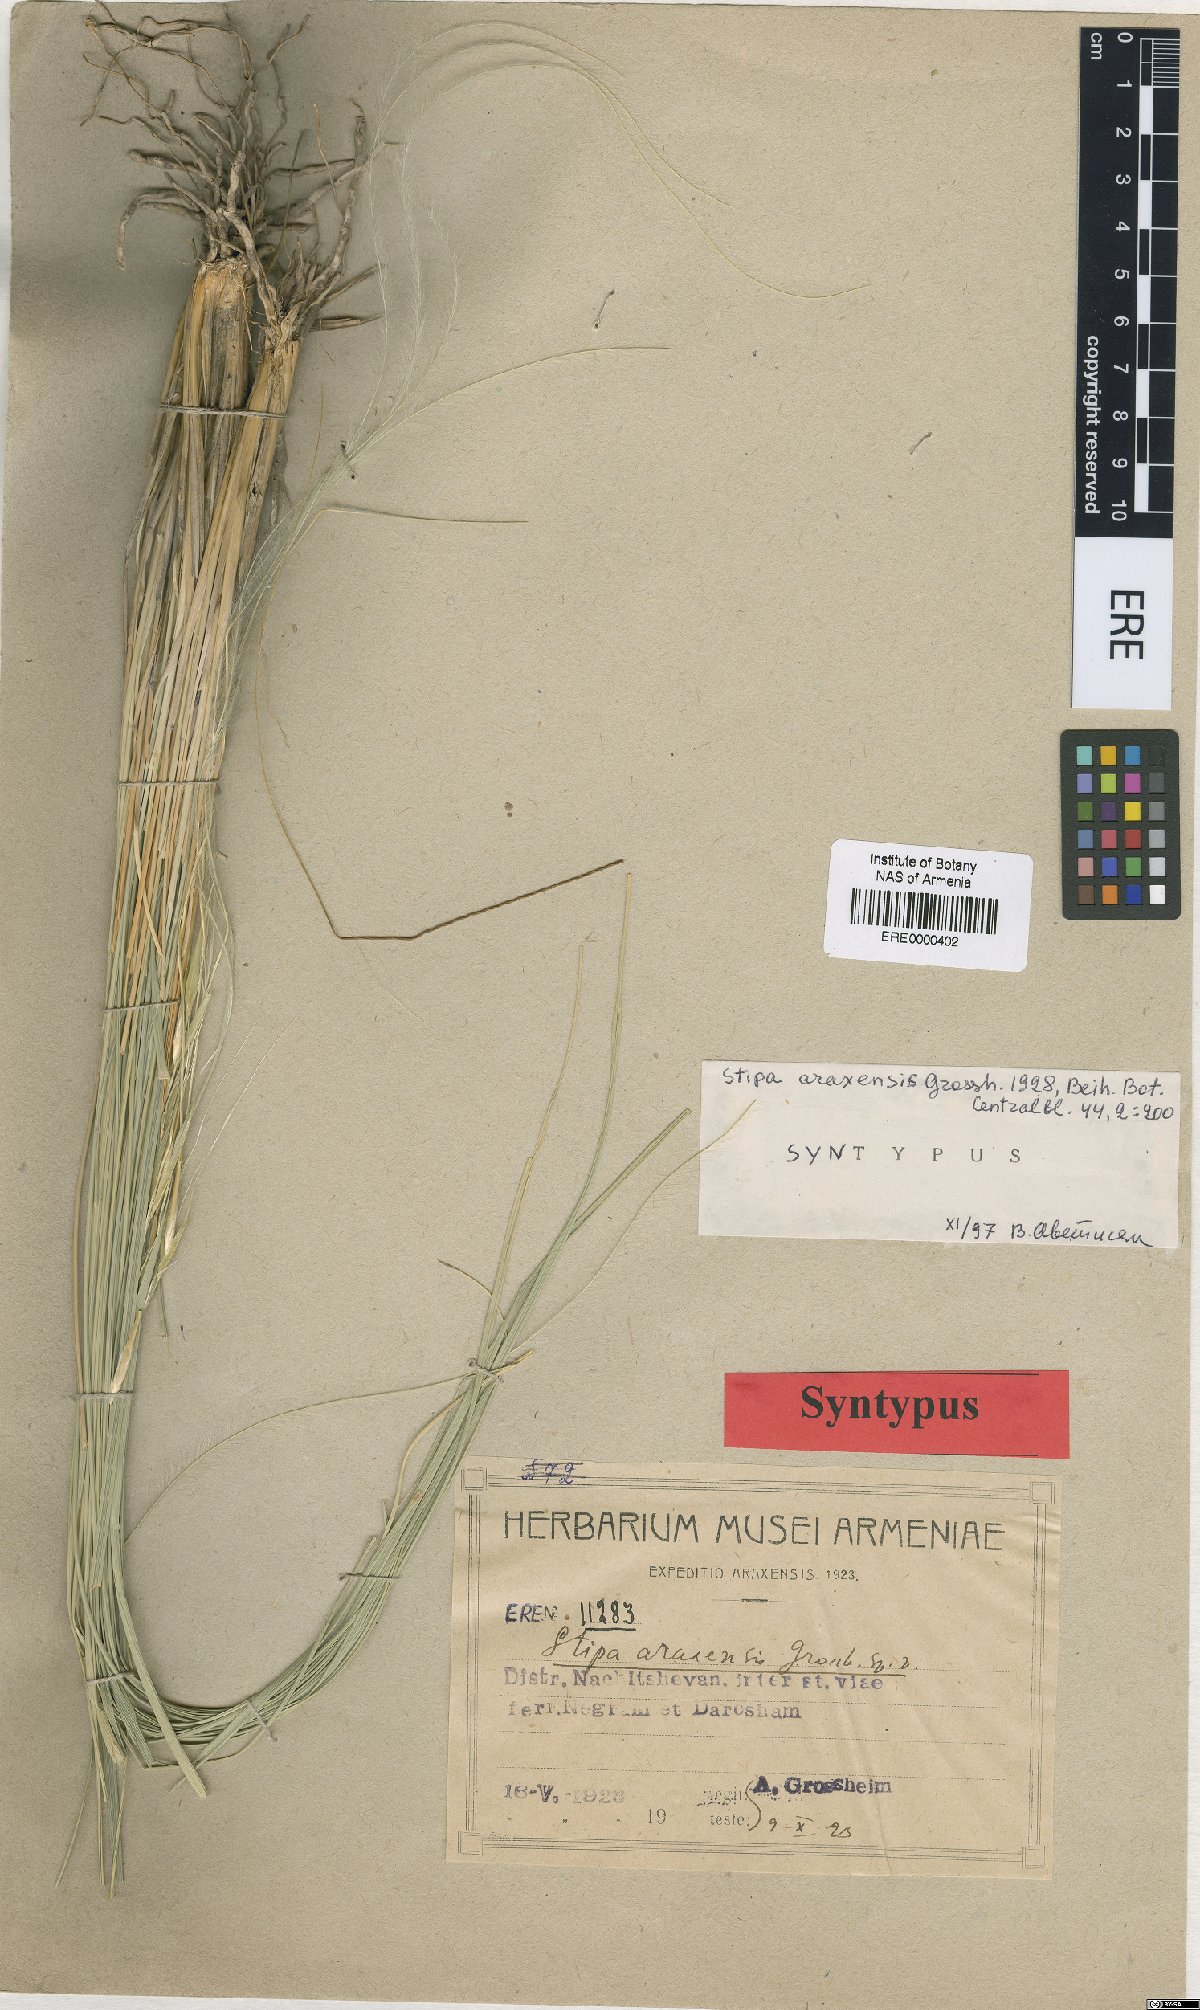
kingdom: Plantae
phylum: Tracheophyta
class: Liliopsida
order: Poales
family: Poaceae
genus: Stipa
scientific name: Stipa araxensis
